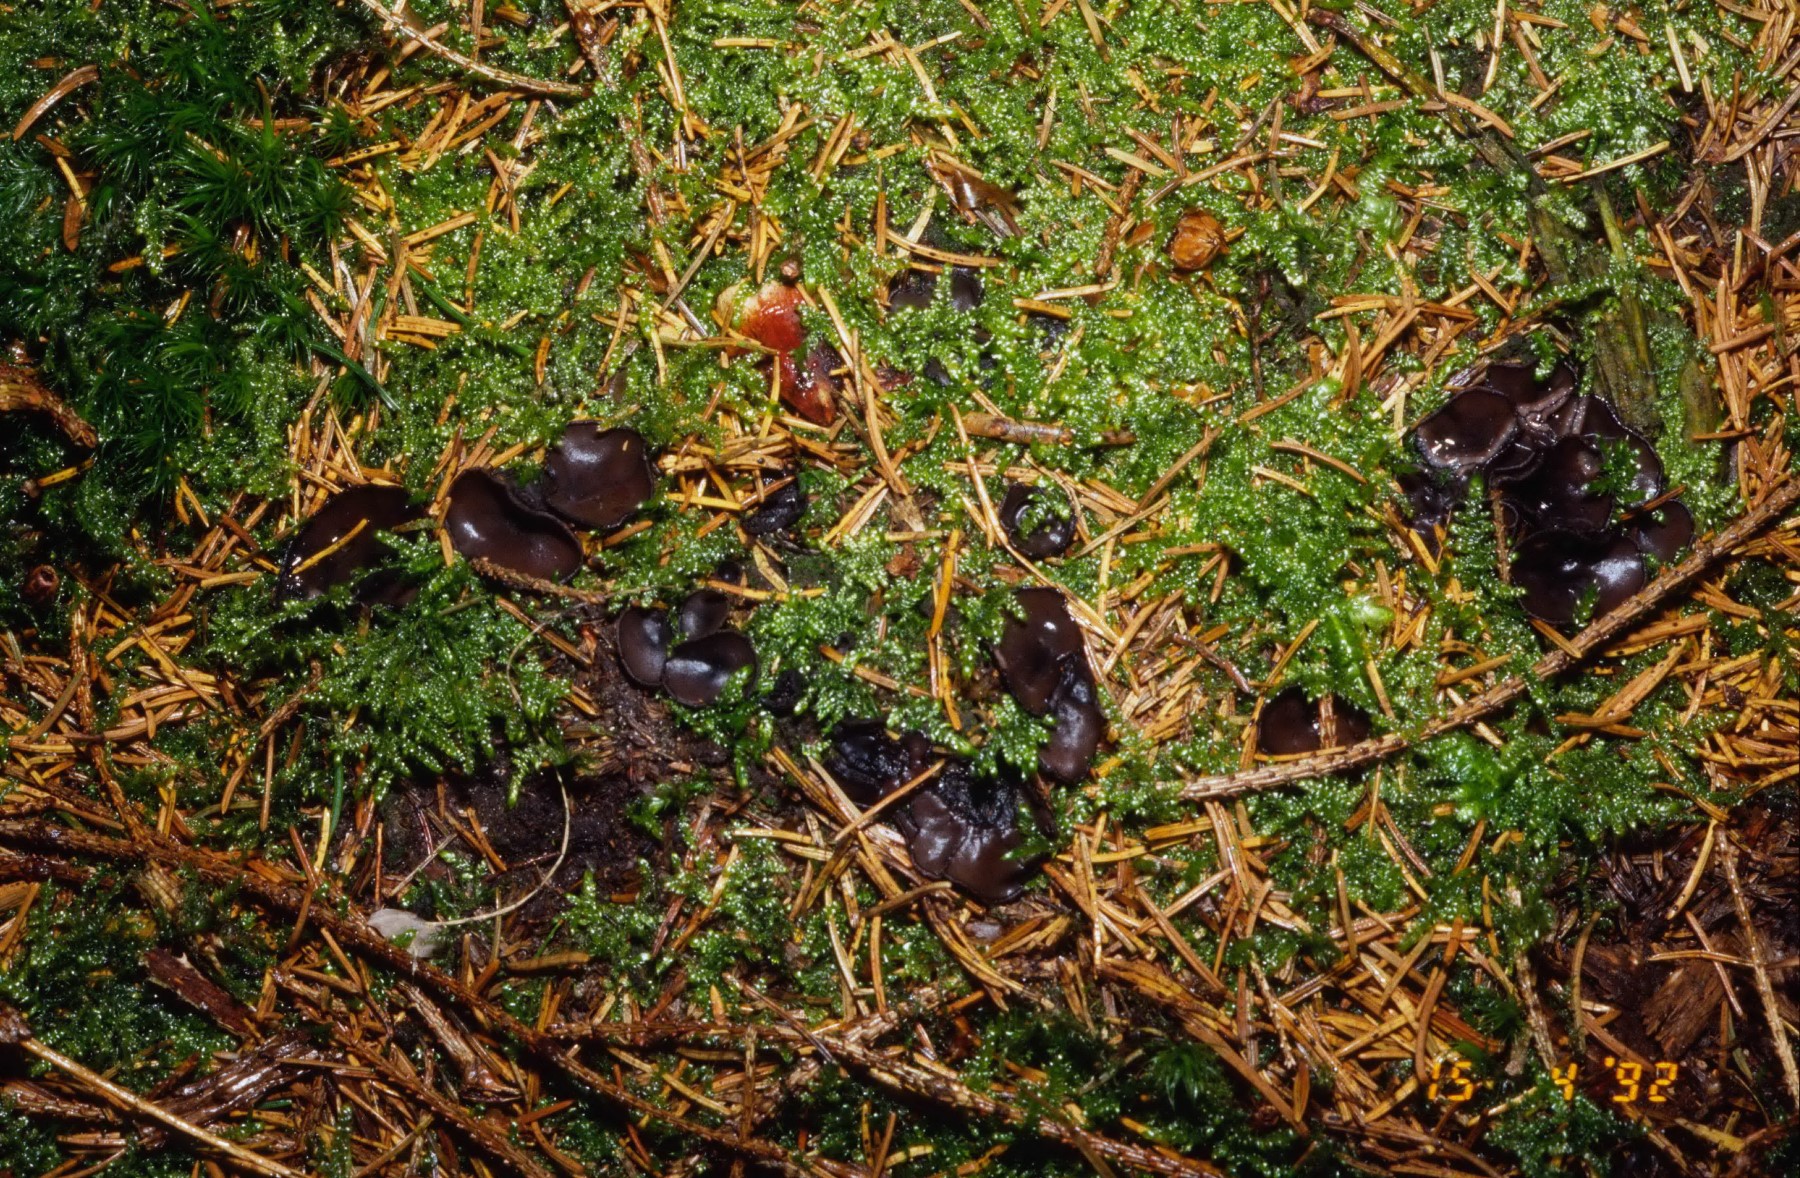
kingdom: Fungi
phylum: Ascomycota
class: Pezizomycetes
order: Pezizales
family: Sarcosomataceae
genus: Pseudoplectania
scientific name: Pseudoplectania nigrella
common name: almindelig sortbæger
